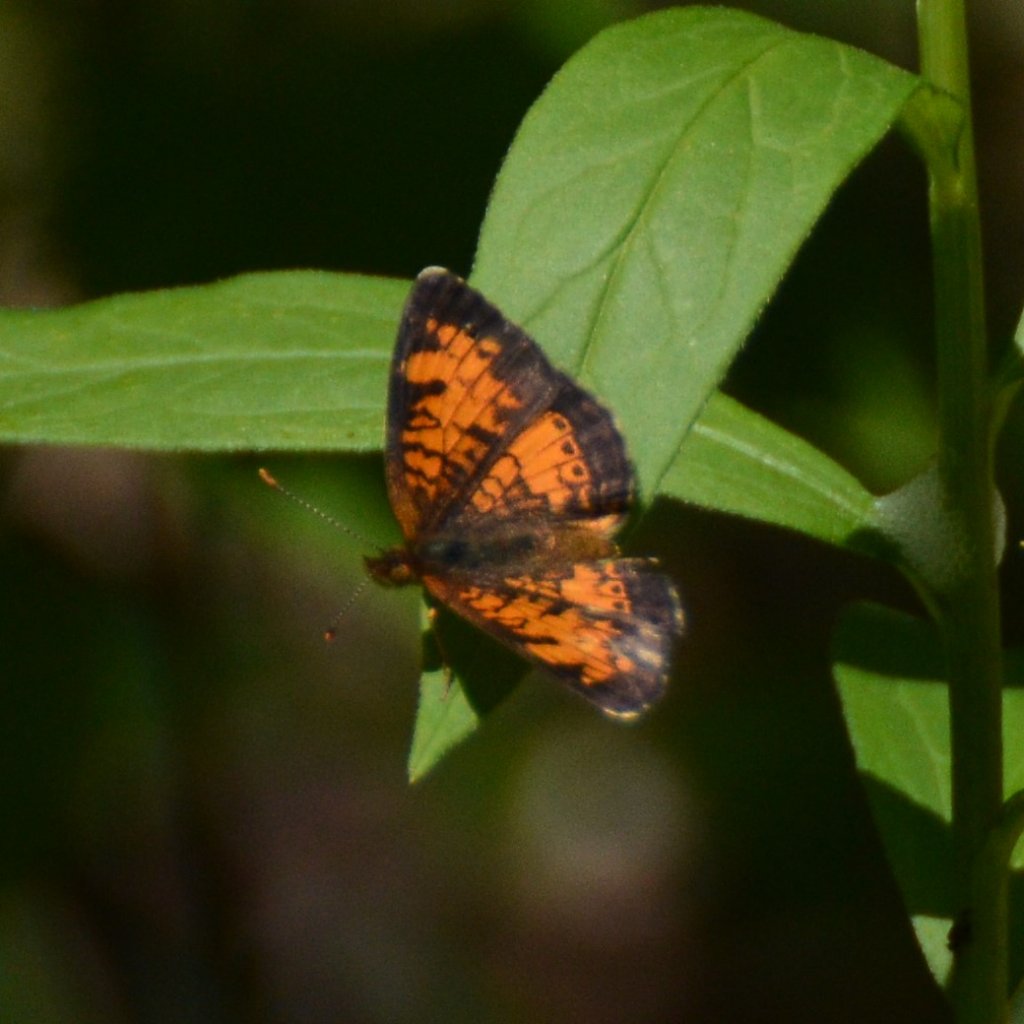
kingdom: Animalia
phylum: Arthropoda
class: Insecta
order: Lepidoptera
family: Nymphalidae
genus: Phyciodes
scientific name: Phyciodes tharos
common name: Northern Crescent
